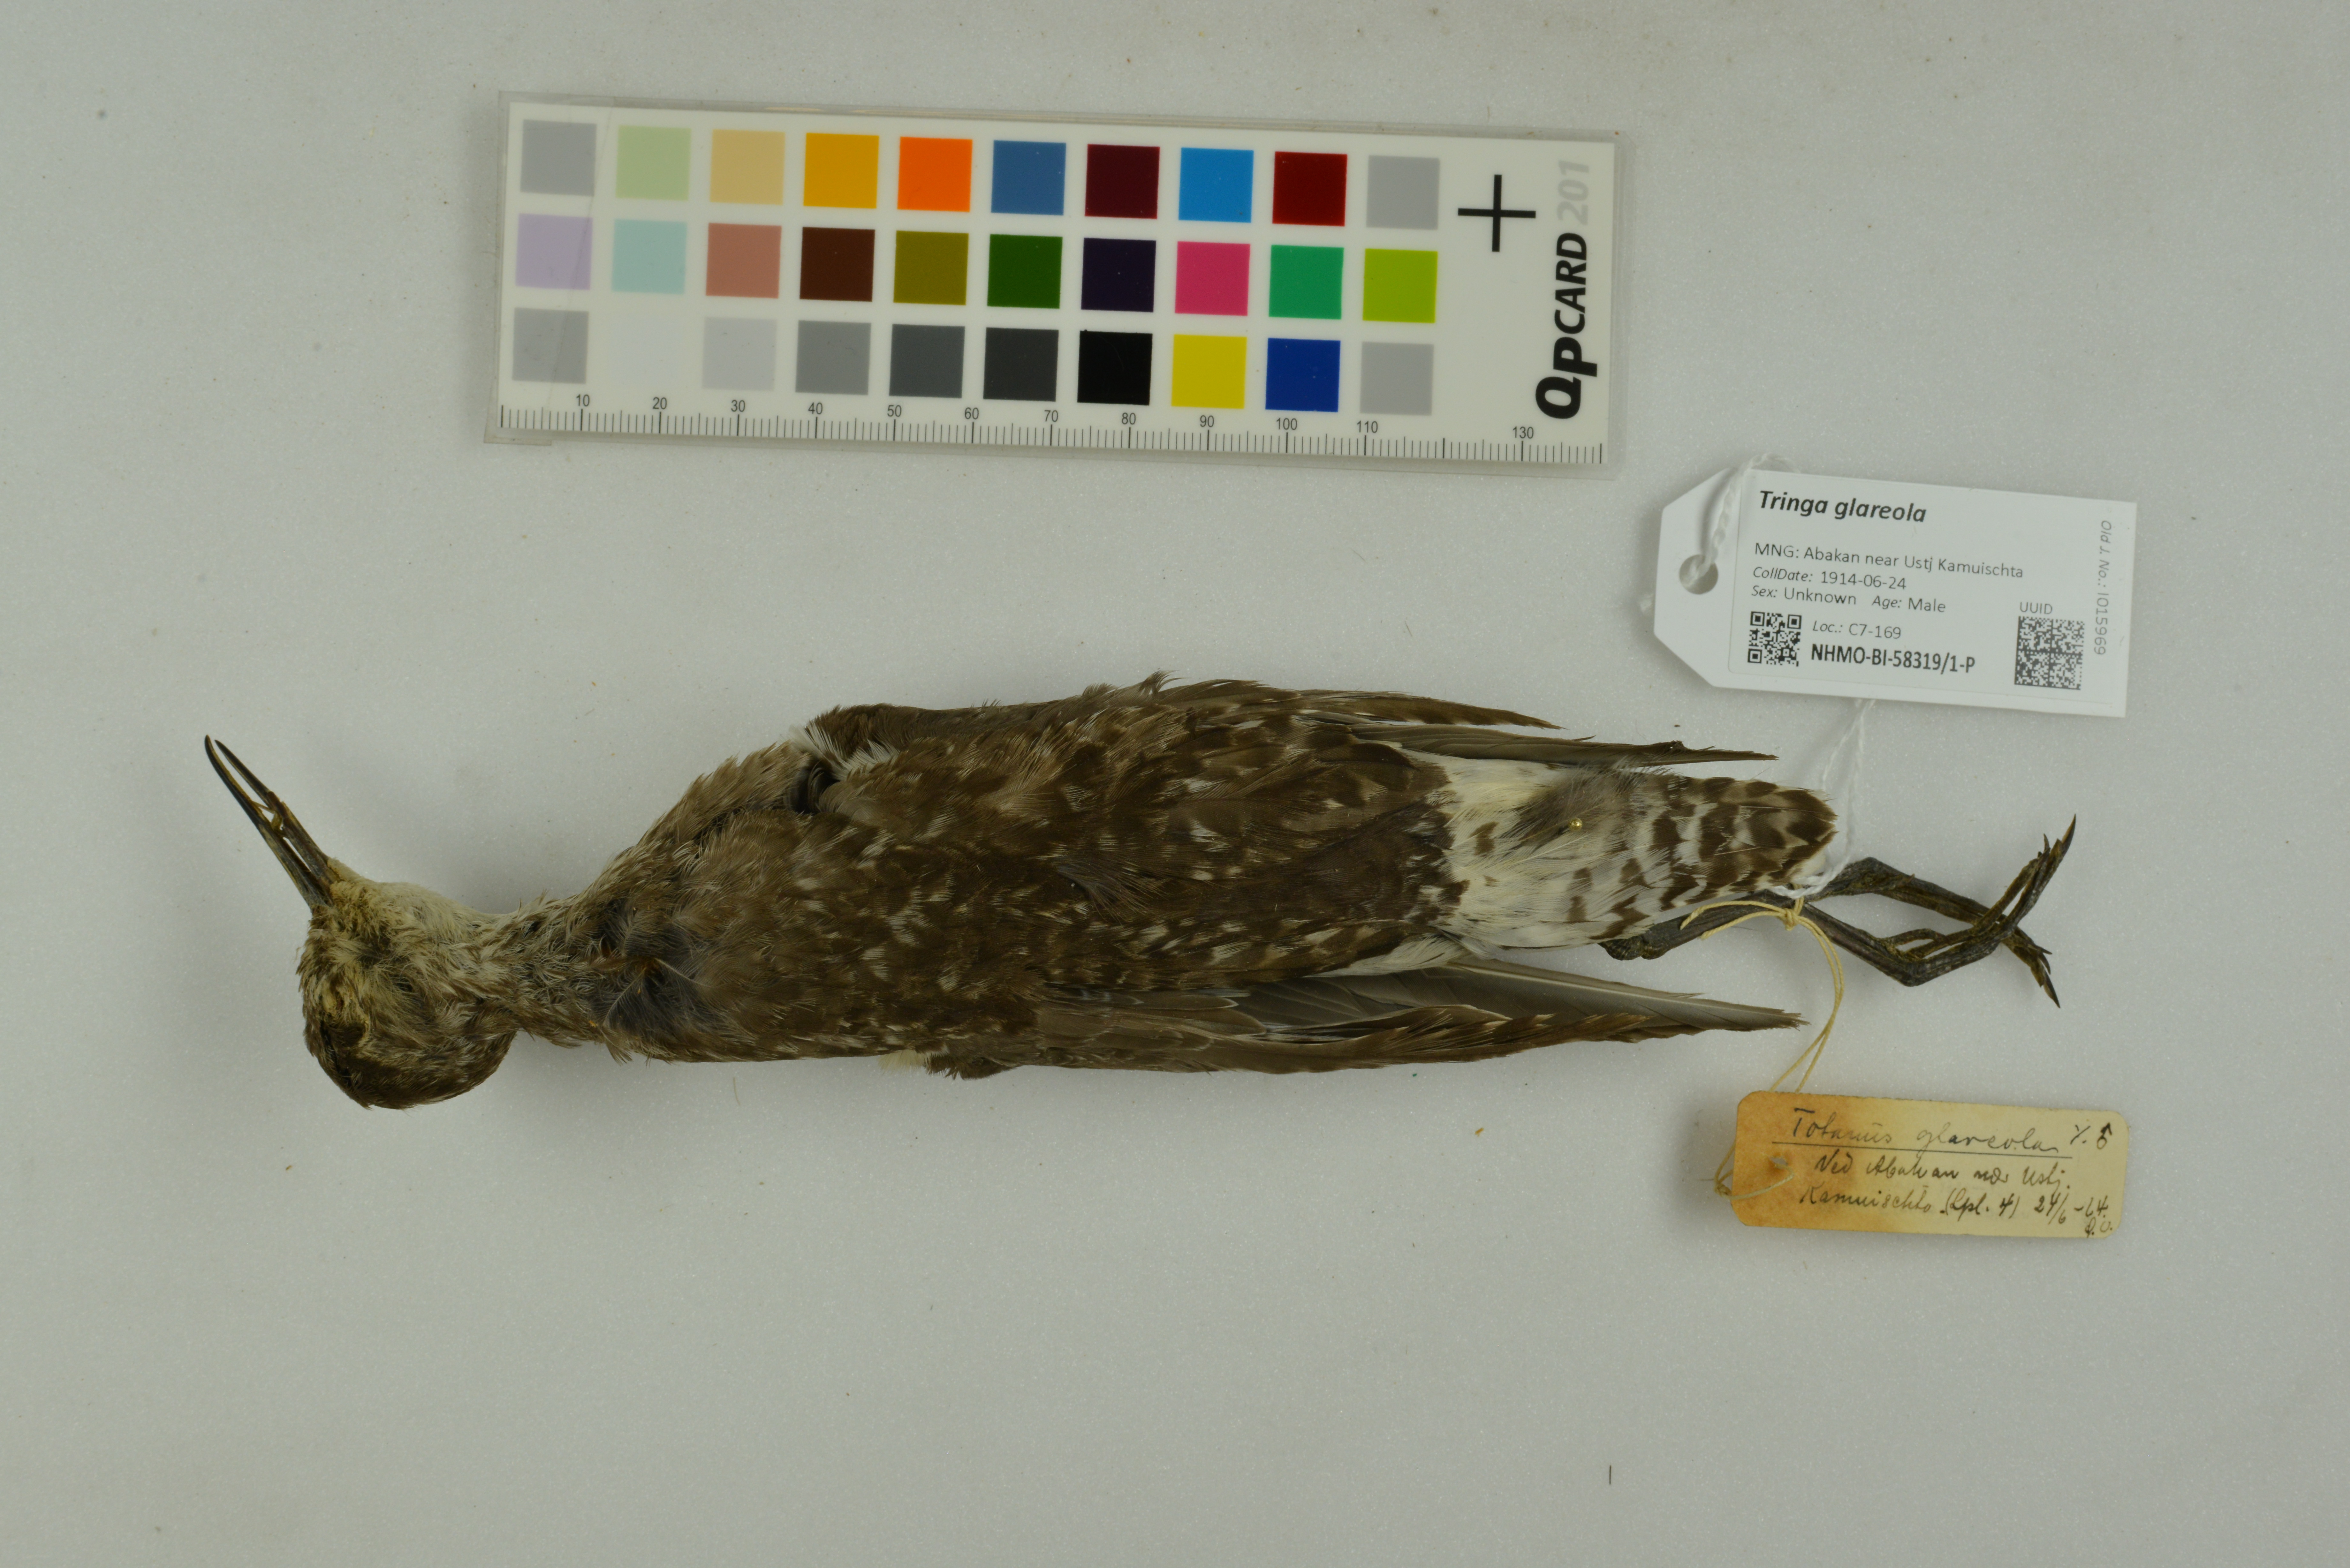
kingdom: Animalia
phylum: Chordata
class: Aves
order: Charadriiformes
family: Scolopacidae
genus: Tringa
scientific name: Tringa glareola
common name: Wood sandpiper
